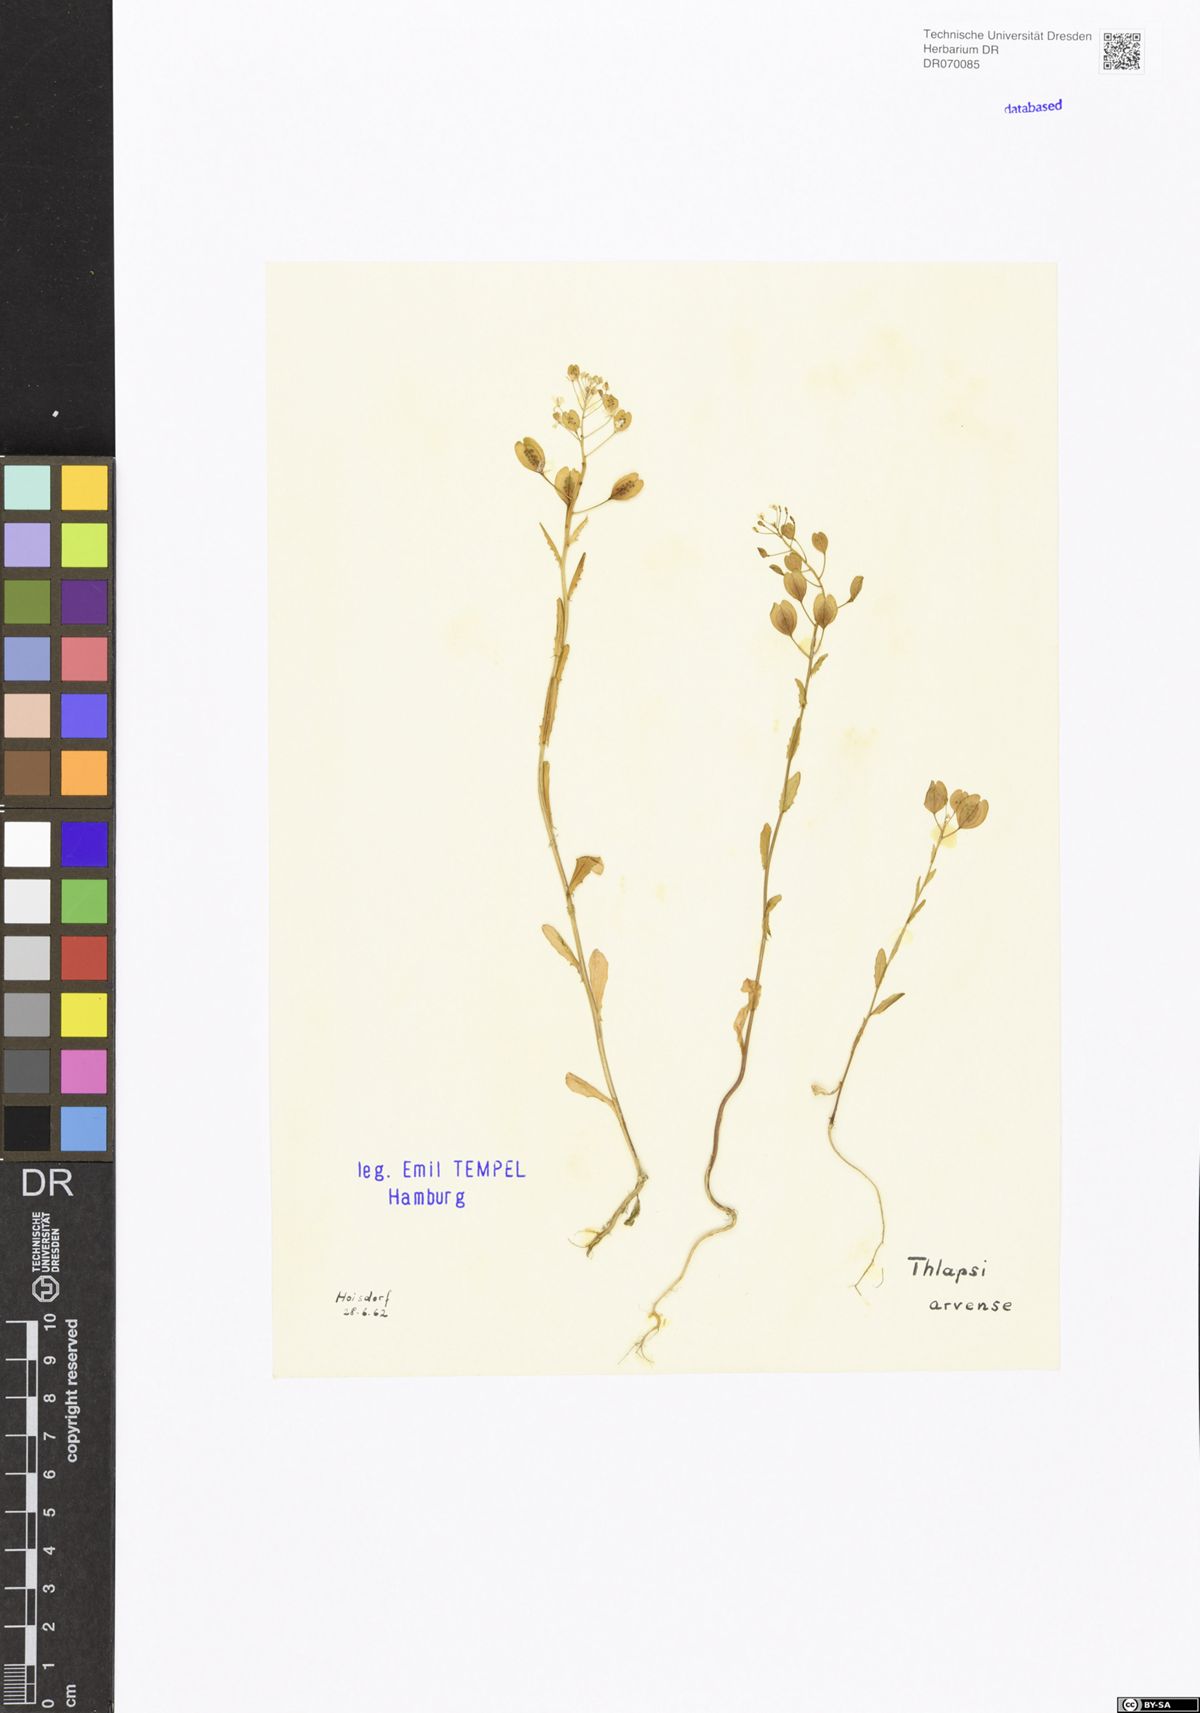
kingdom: Plantae
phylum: Tracheophyta
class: Magnoliopsida
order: Brassicales
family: Brassicaceae
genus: Thlaspi
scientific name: Thlaspi arvense
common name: Field pennycress
